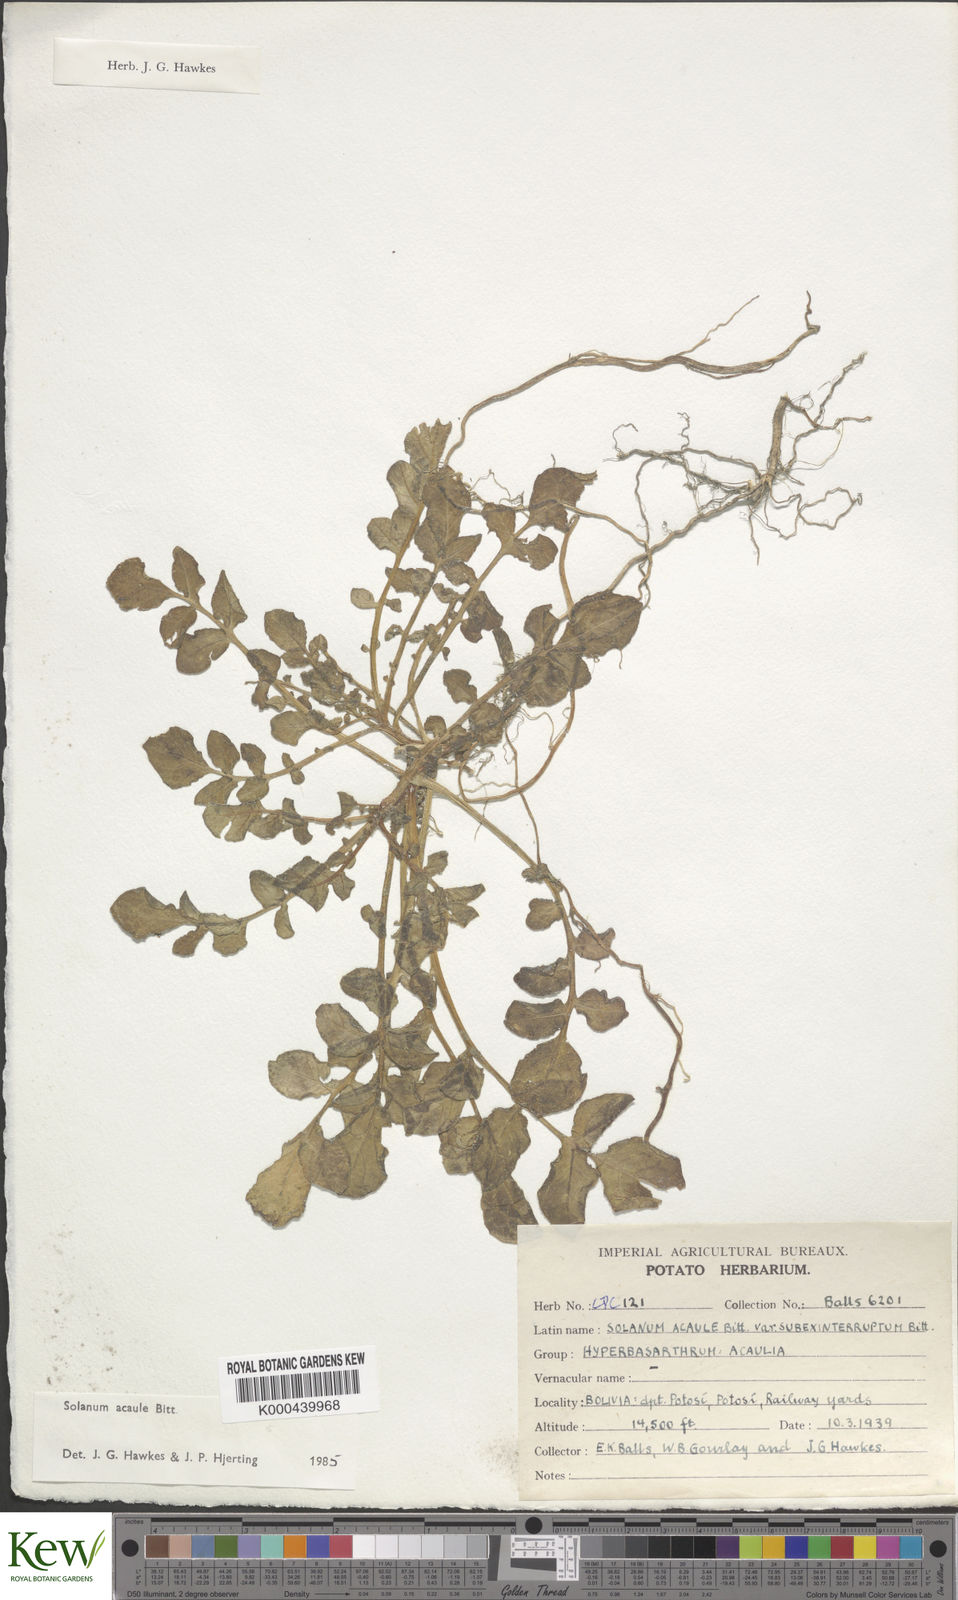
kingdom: Plantae
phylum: Tracheophyta
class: Magnoliopsida
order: Solanales
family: Solanaceae
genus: Solanum
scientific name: Solanum acaule
